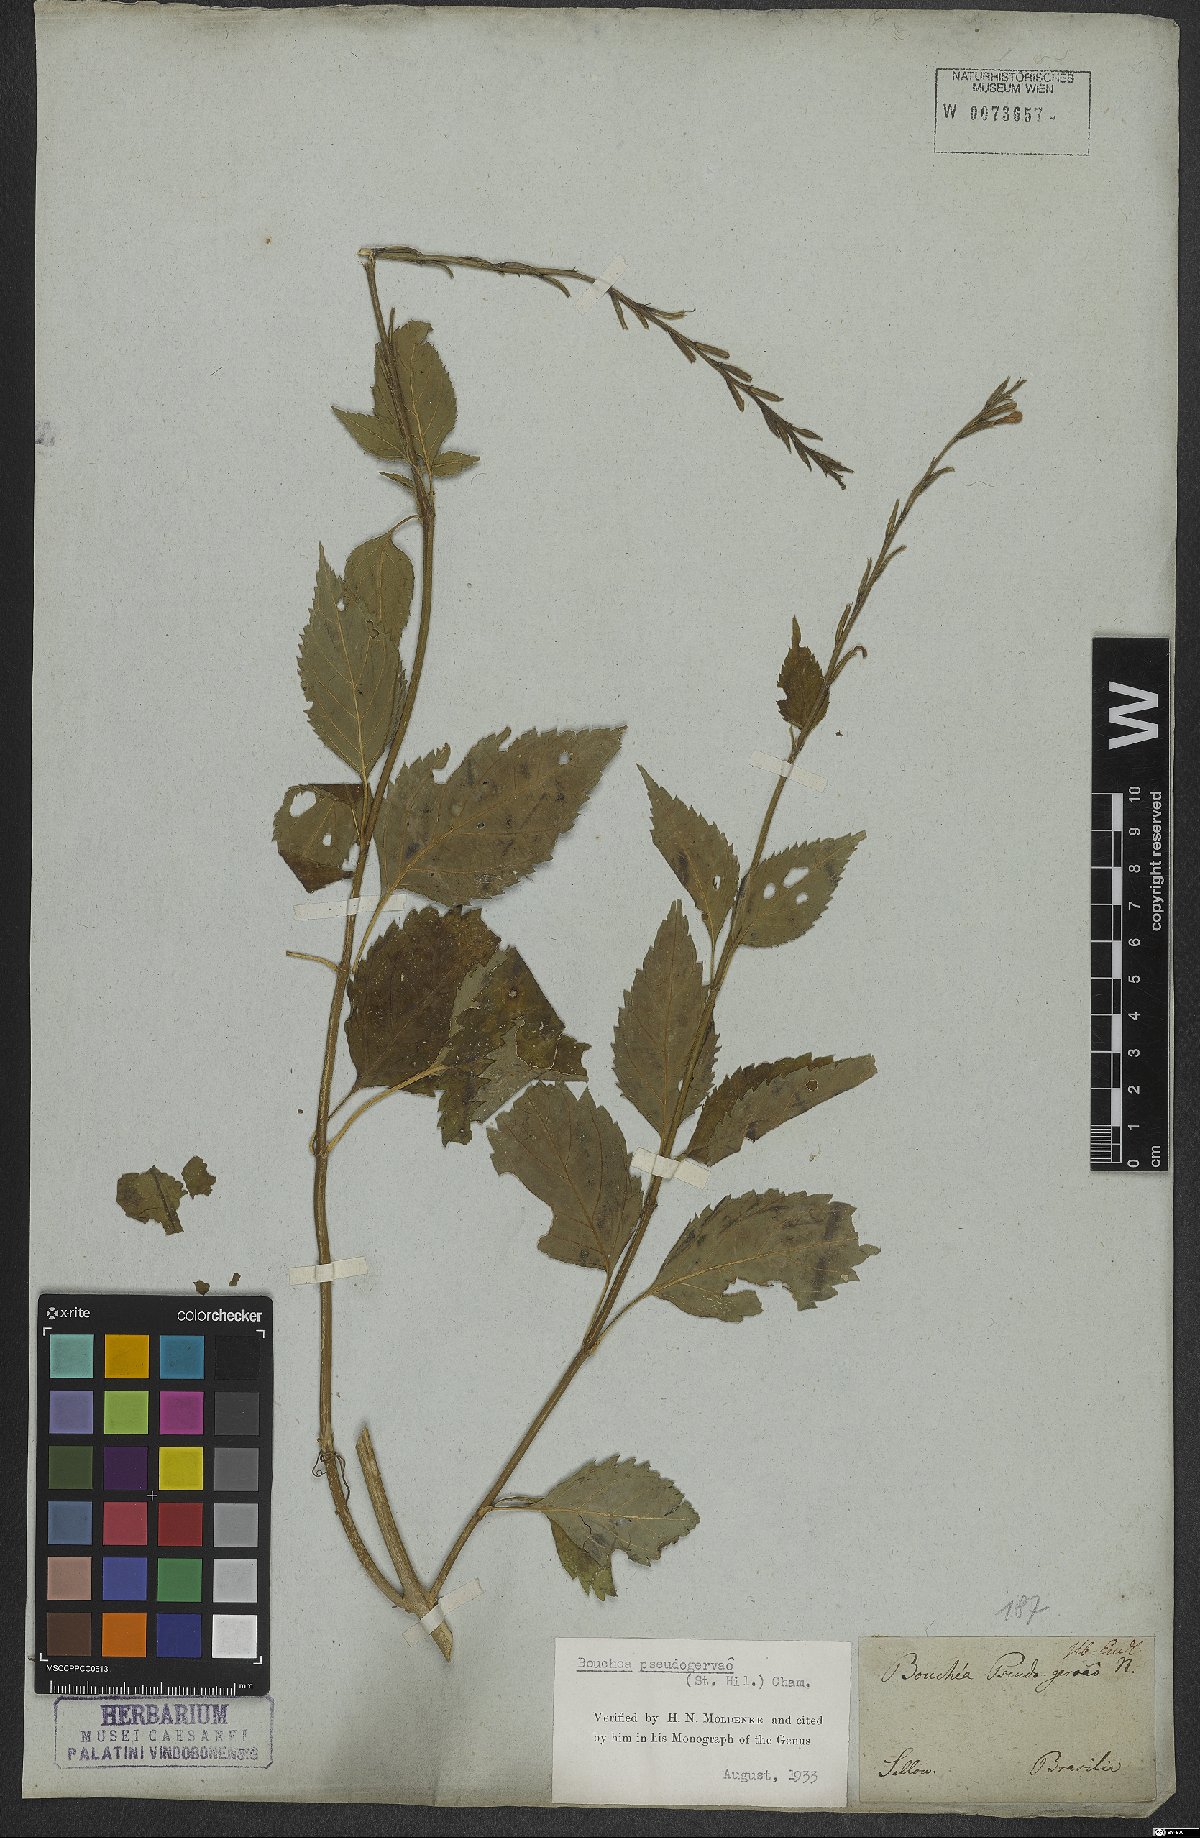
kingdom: Plantae
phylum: Tracheophyta
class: Magnoliopsida
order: Lamiales
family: Verbenaceae
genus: Bouchea
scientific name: Bouchea pseudogervao
